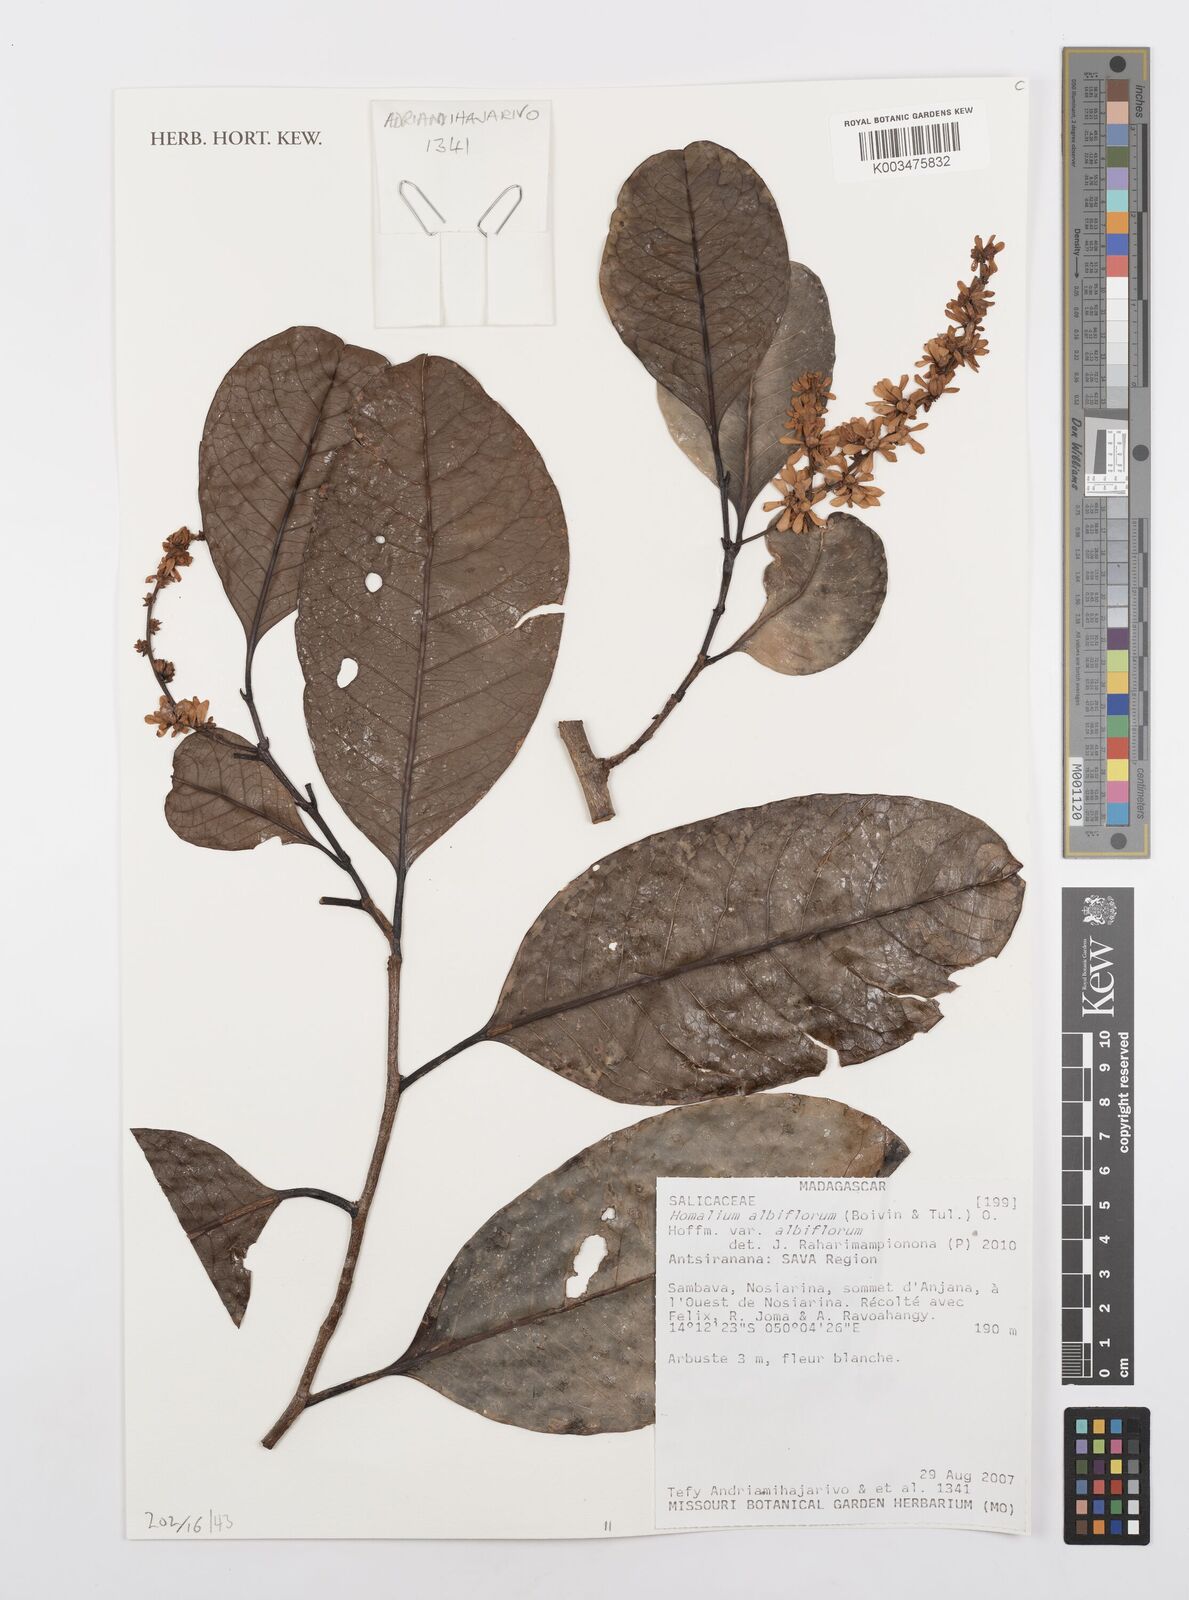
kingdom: Plantae
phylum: Tracheophyta
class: Magnoliopsida
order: Malpighiales
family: Salicaceae
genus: Homalium
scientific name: Homalium albiflorum
